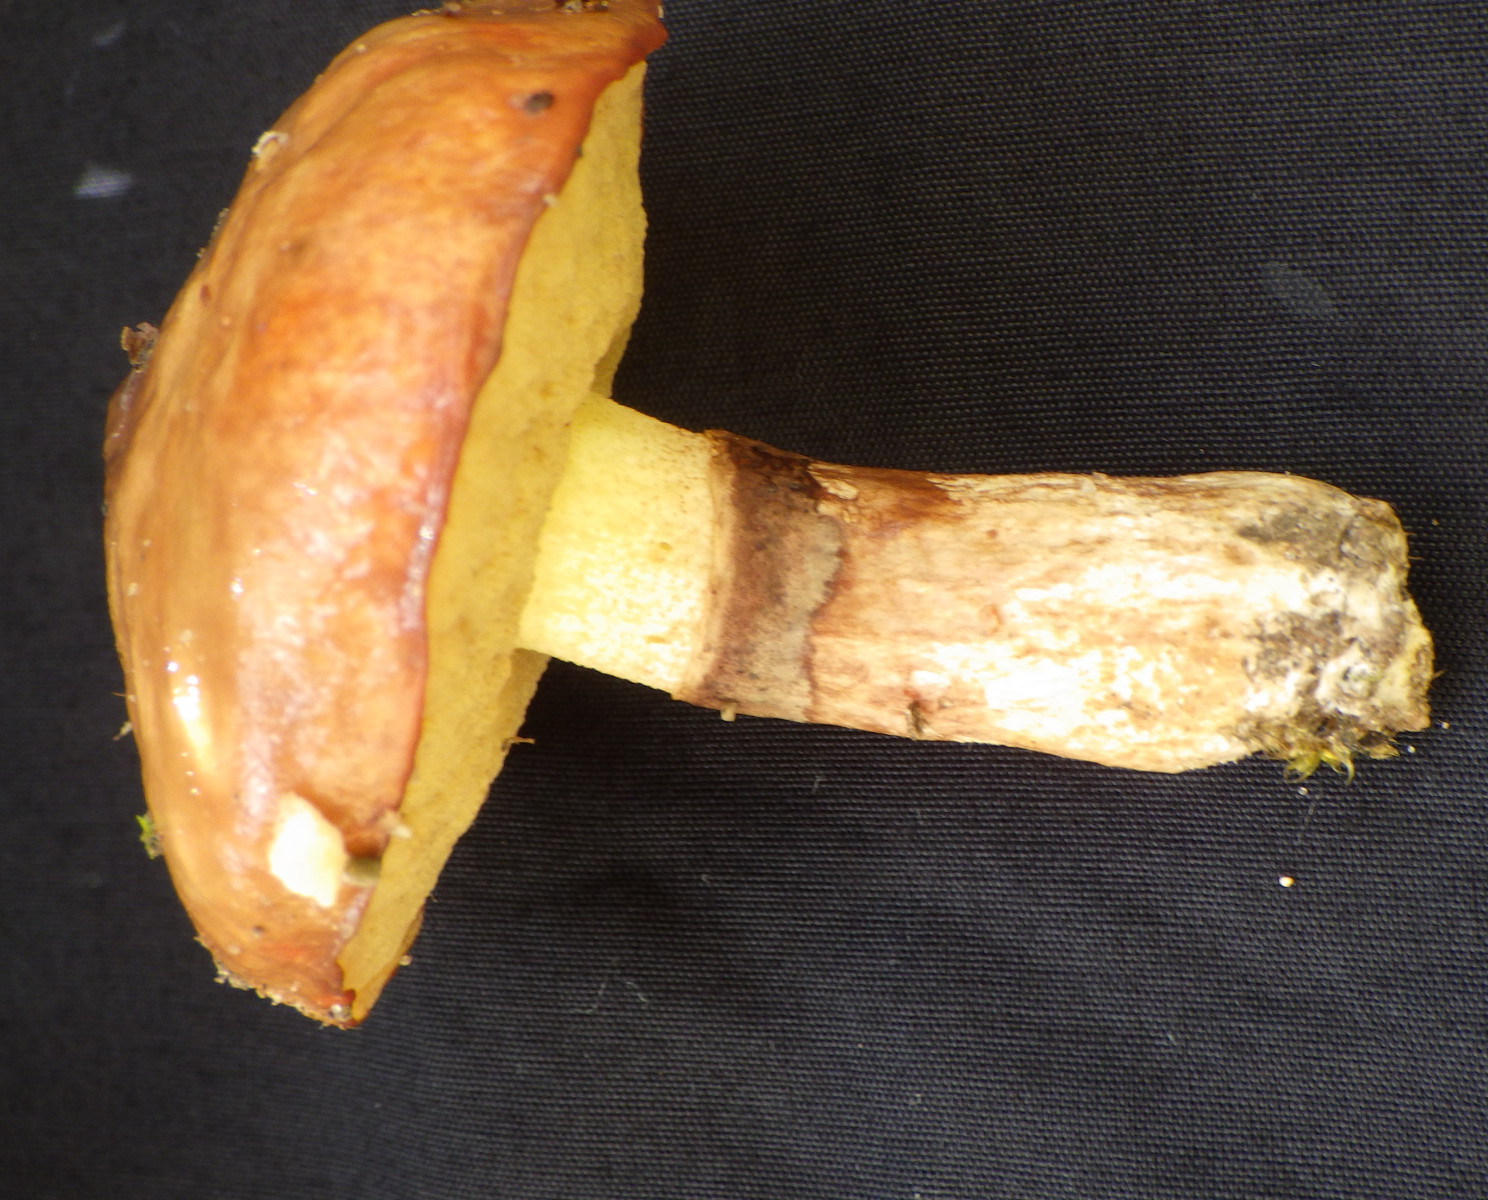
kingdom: Fungi
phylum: Basidiomycota
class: Agaricomycetes
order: Boletales
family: Suillaceae
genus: Suillus
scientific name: Suillus luteus
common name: brungul slimrørhat
